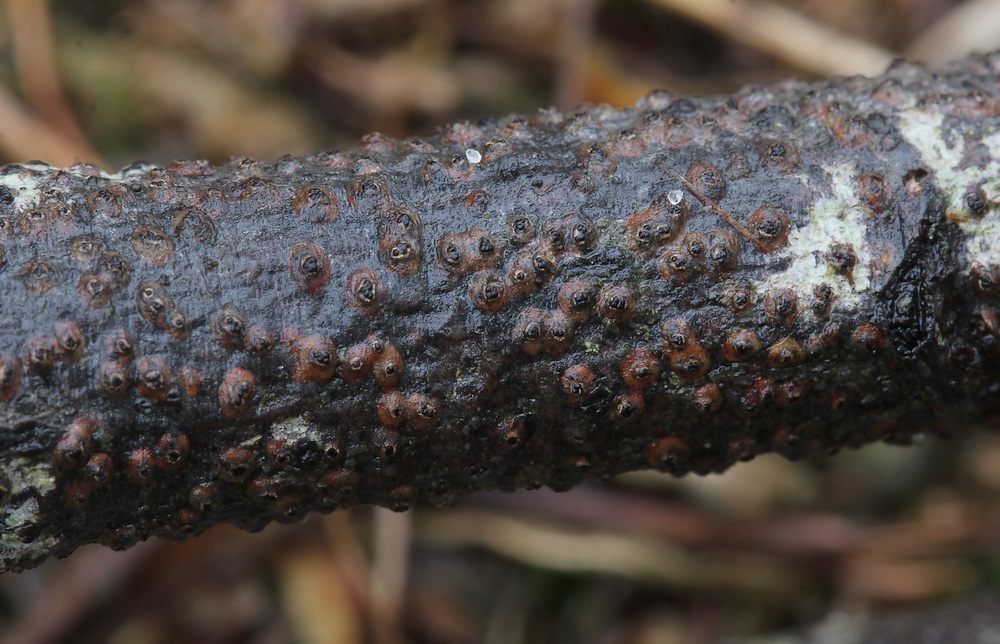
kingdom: Fungi
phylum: Ascomycota
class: Sordariomycetes
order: Diaporthales
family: Valsaceae
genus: Cytospora
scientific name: Cytospora
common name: kulknippe
